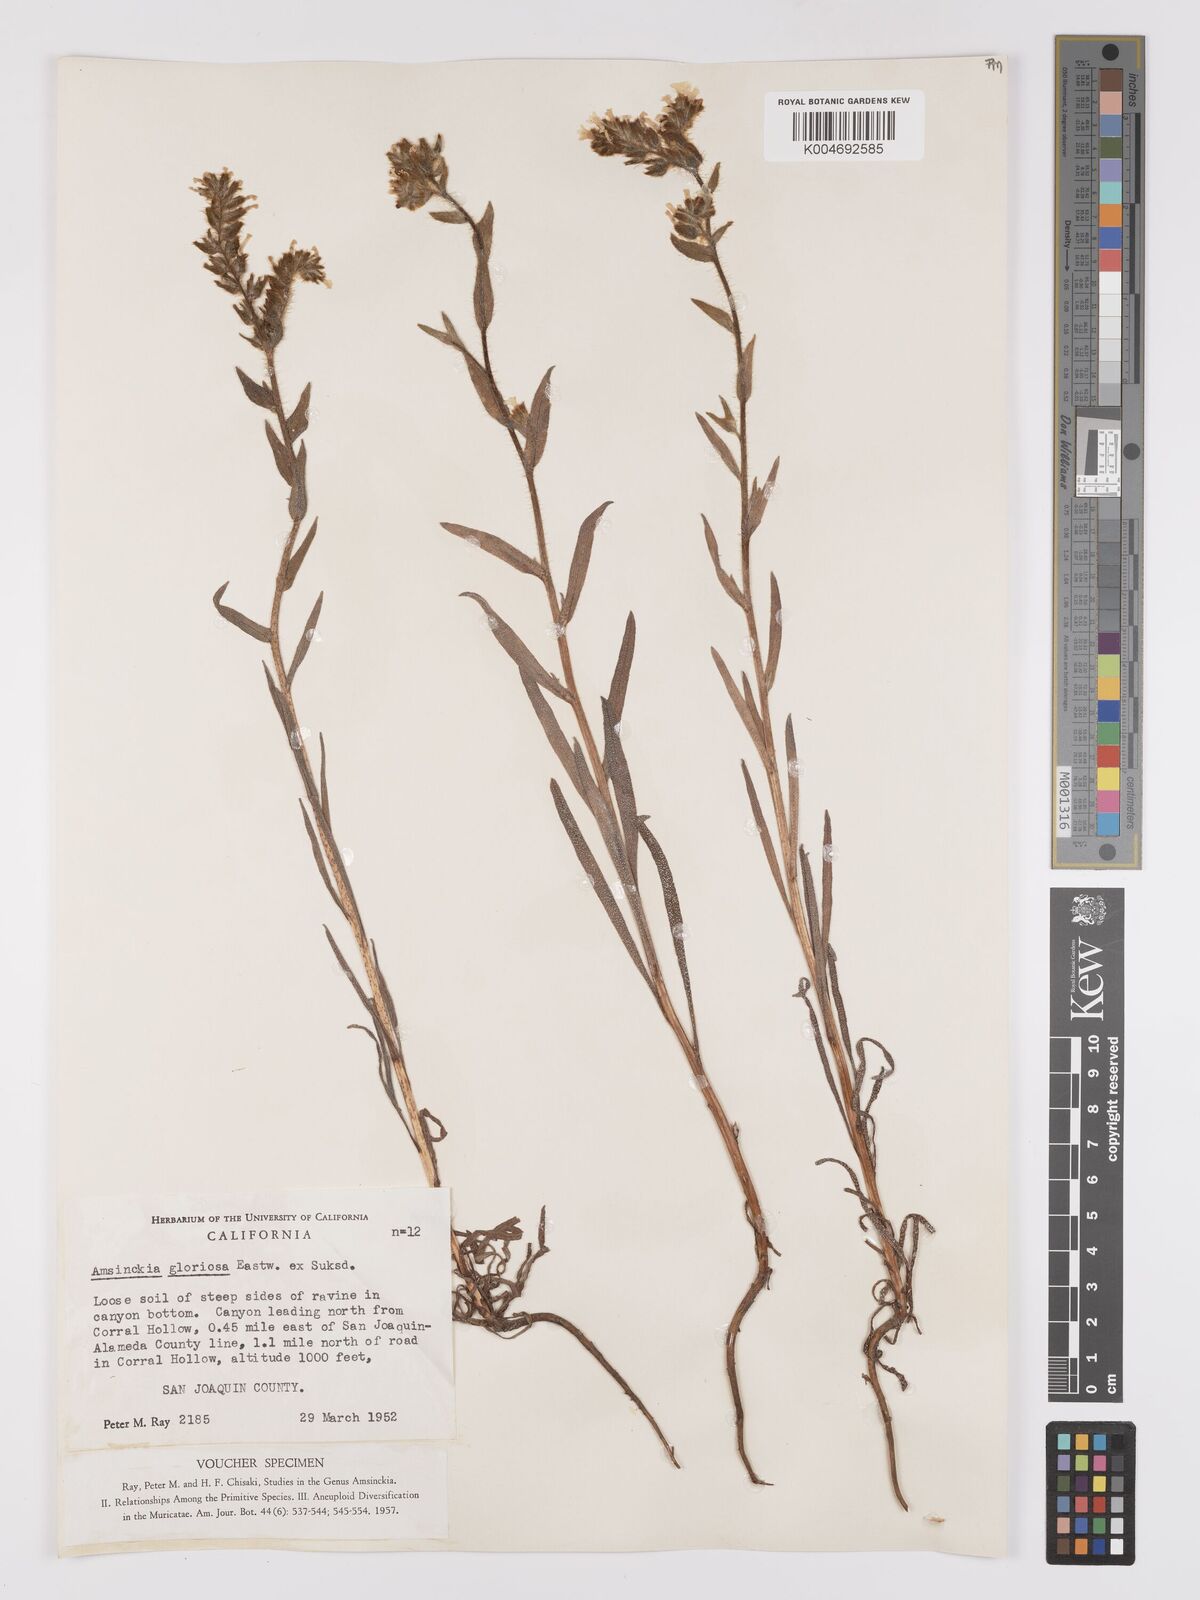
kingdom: Plantae
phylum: Tracheophyta
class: Magnoliopsida
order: Boraginales
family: Boraginaceae
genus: Amsinckia
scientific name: Amsinckia tessellata
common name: Tessellate fiddleneck
